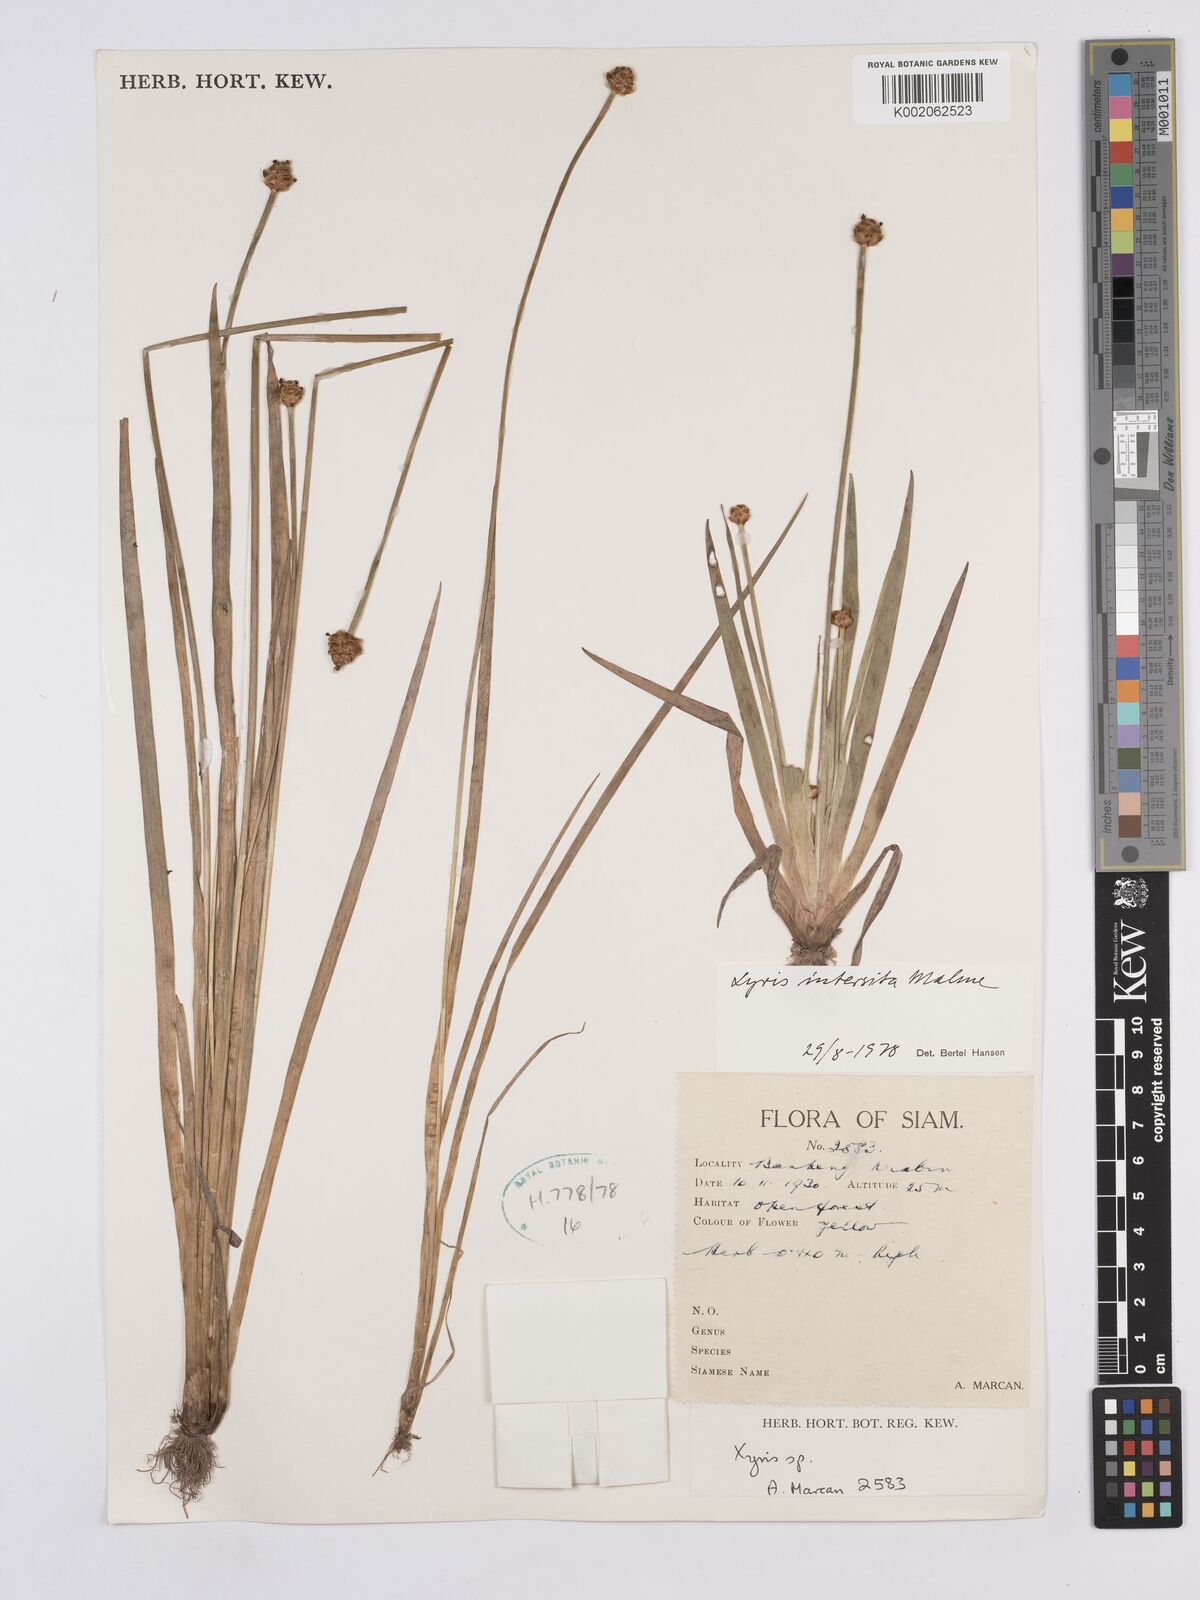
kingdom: Plantae
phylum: Tracheophyta
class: Liliopsida
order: Poales
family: Xyridaceae
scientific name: Xyridaceae
